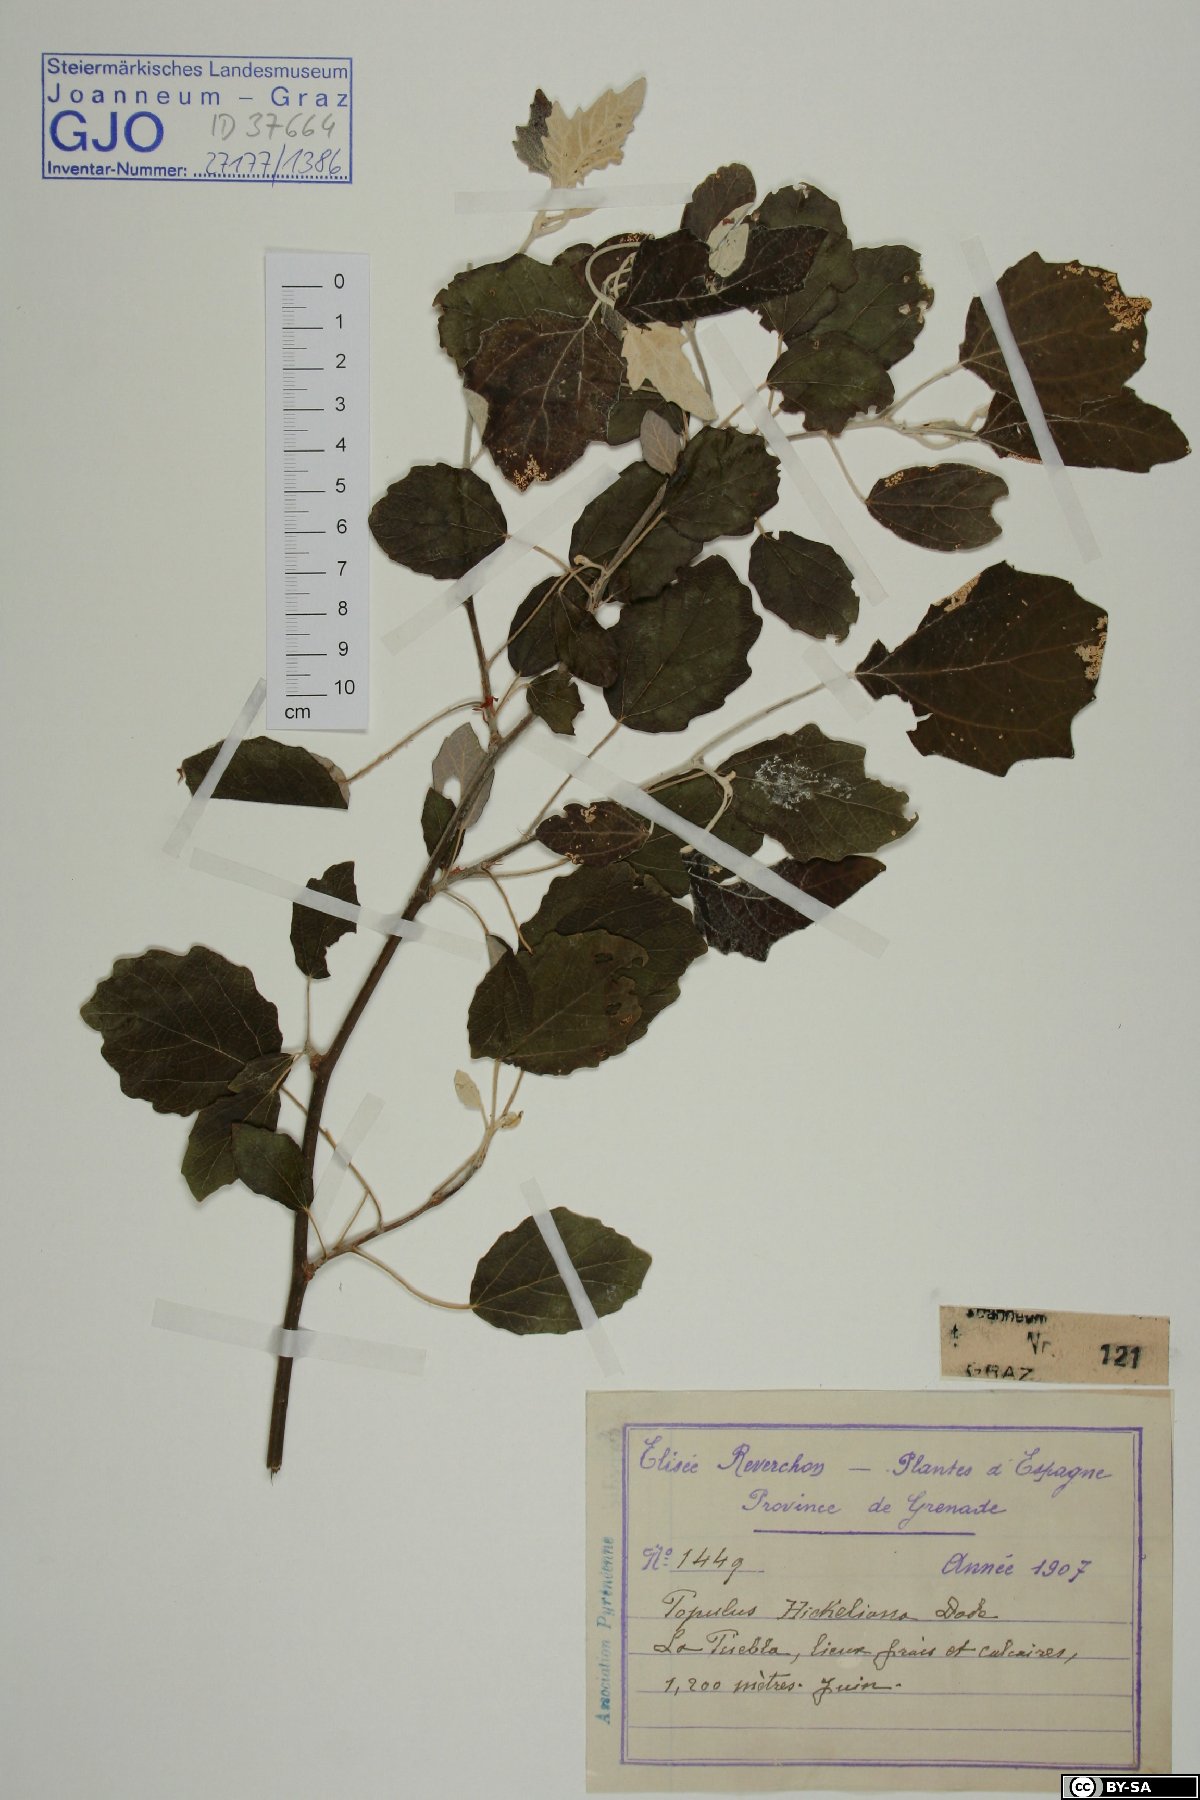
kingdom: Plantae
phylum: Tracheophyta
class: Magnoliopsida
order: Malpighiales
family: Salicaceae
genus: Populus
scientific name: Populus alba
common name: White poplar
